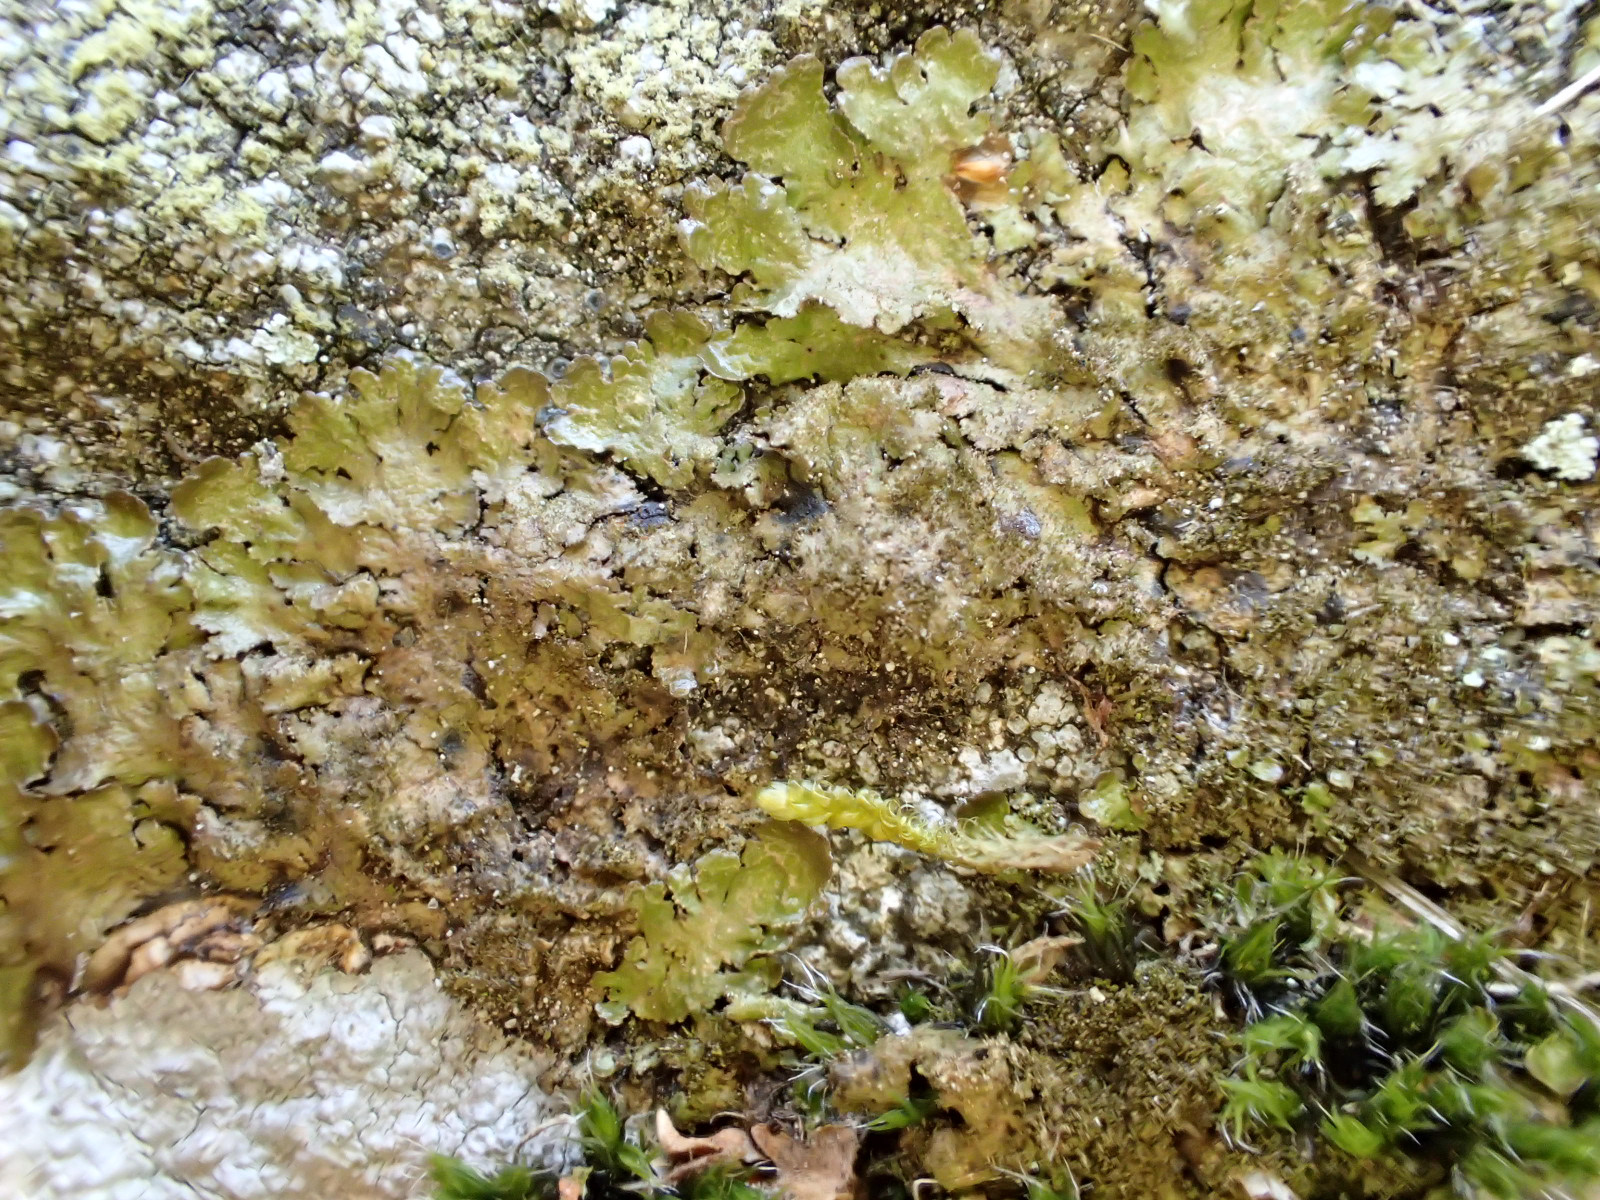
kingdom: Fungi
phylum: Ascomycota
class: Lecanoromycetes
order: Lecanorales
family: Parmeliaceae
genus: Melanelixia
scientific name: Melanelixia glabratula
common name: glinsende skållav
